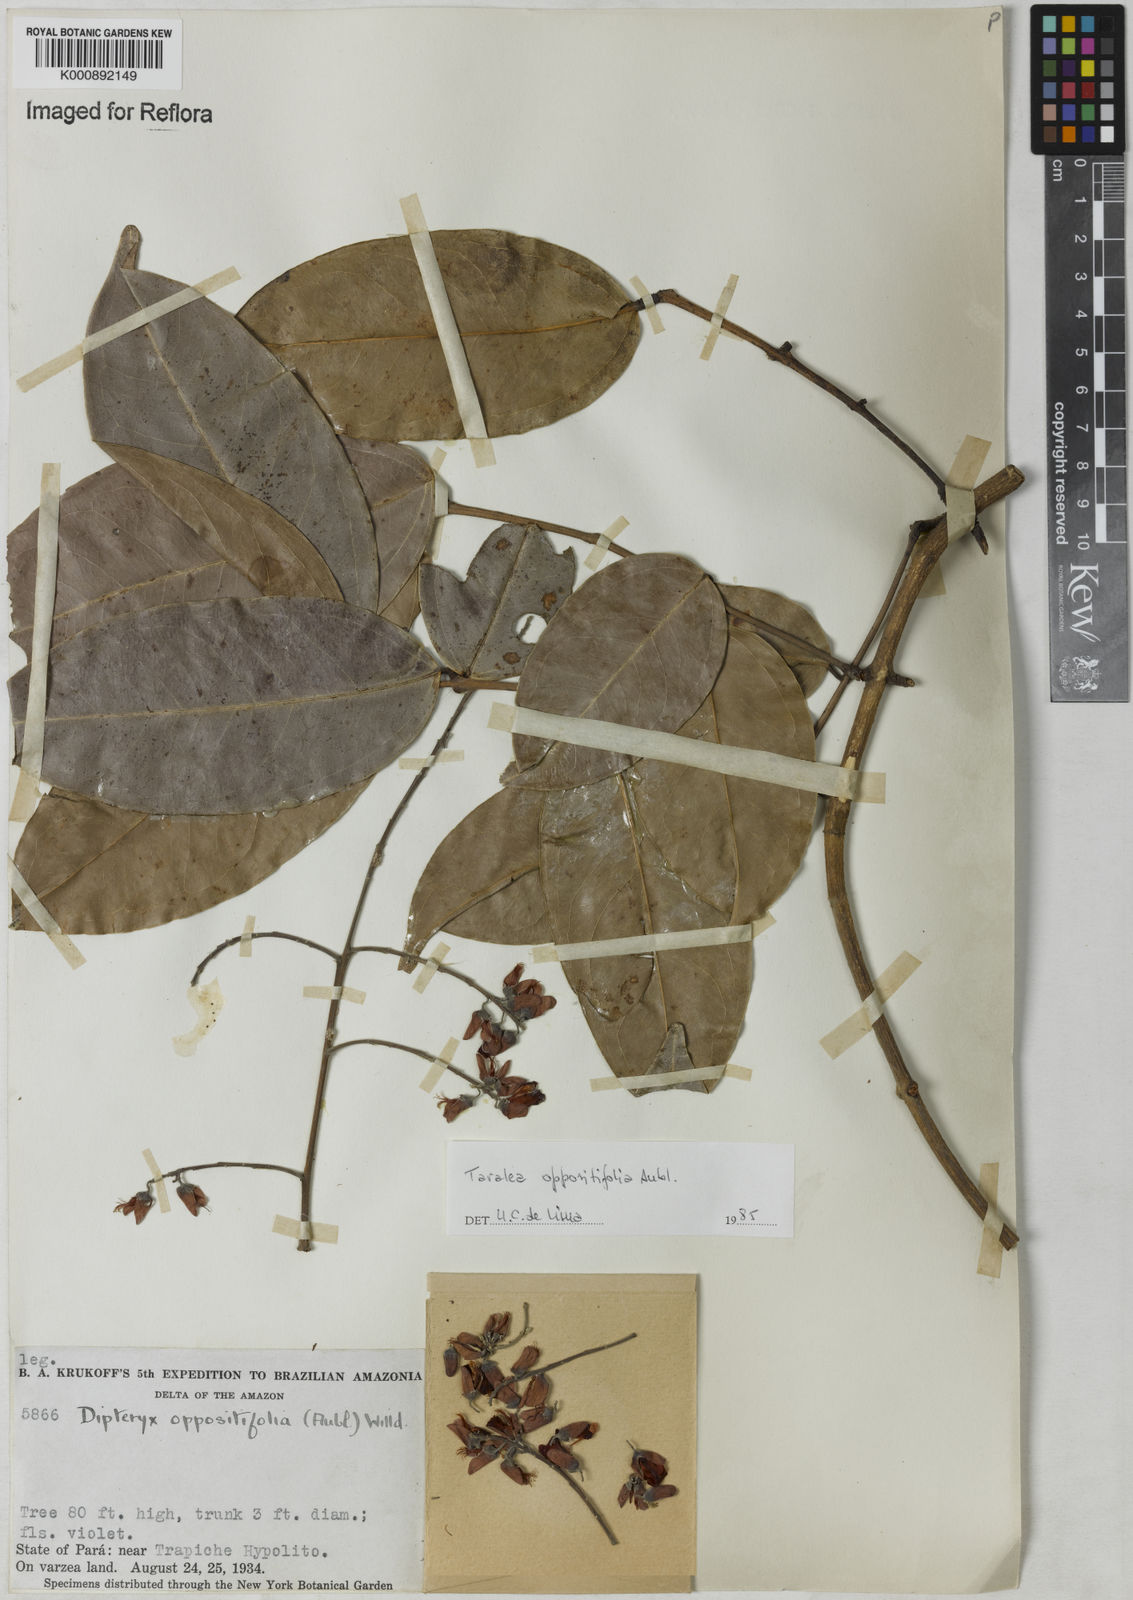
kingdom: Plantae
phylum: Tracheophyta
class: Magnoliopsida
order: Fabales
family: Fabaceae
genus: Taralea
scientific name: Taralea oppositifolia
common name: Tonka
